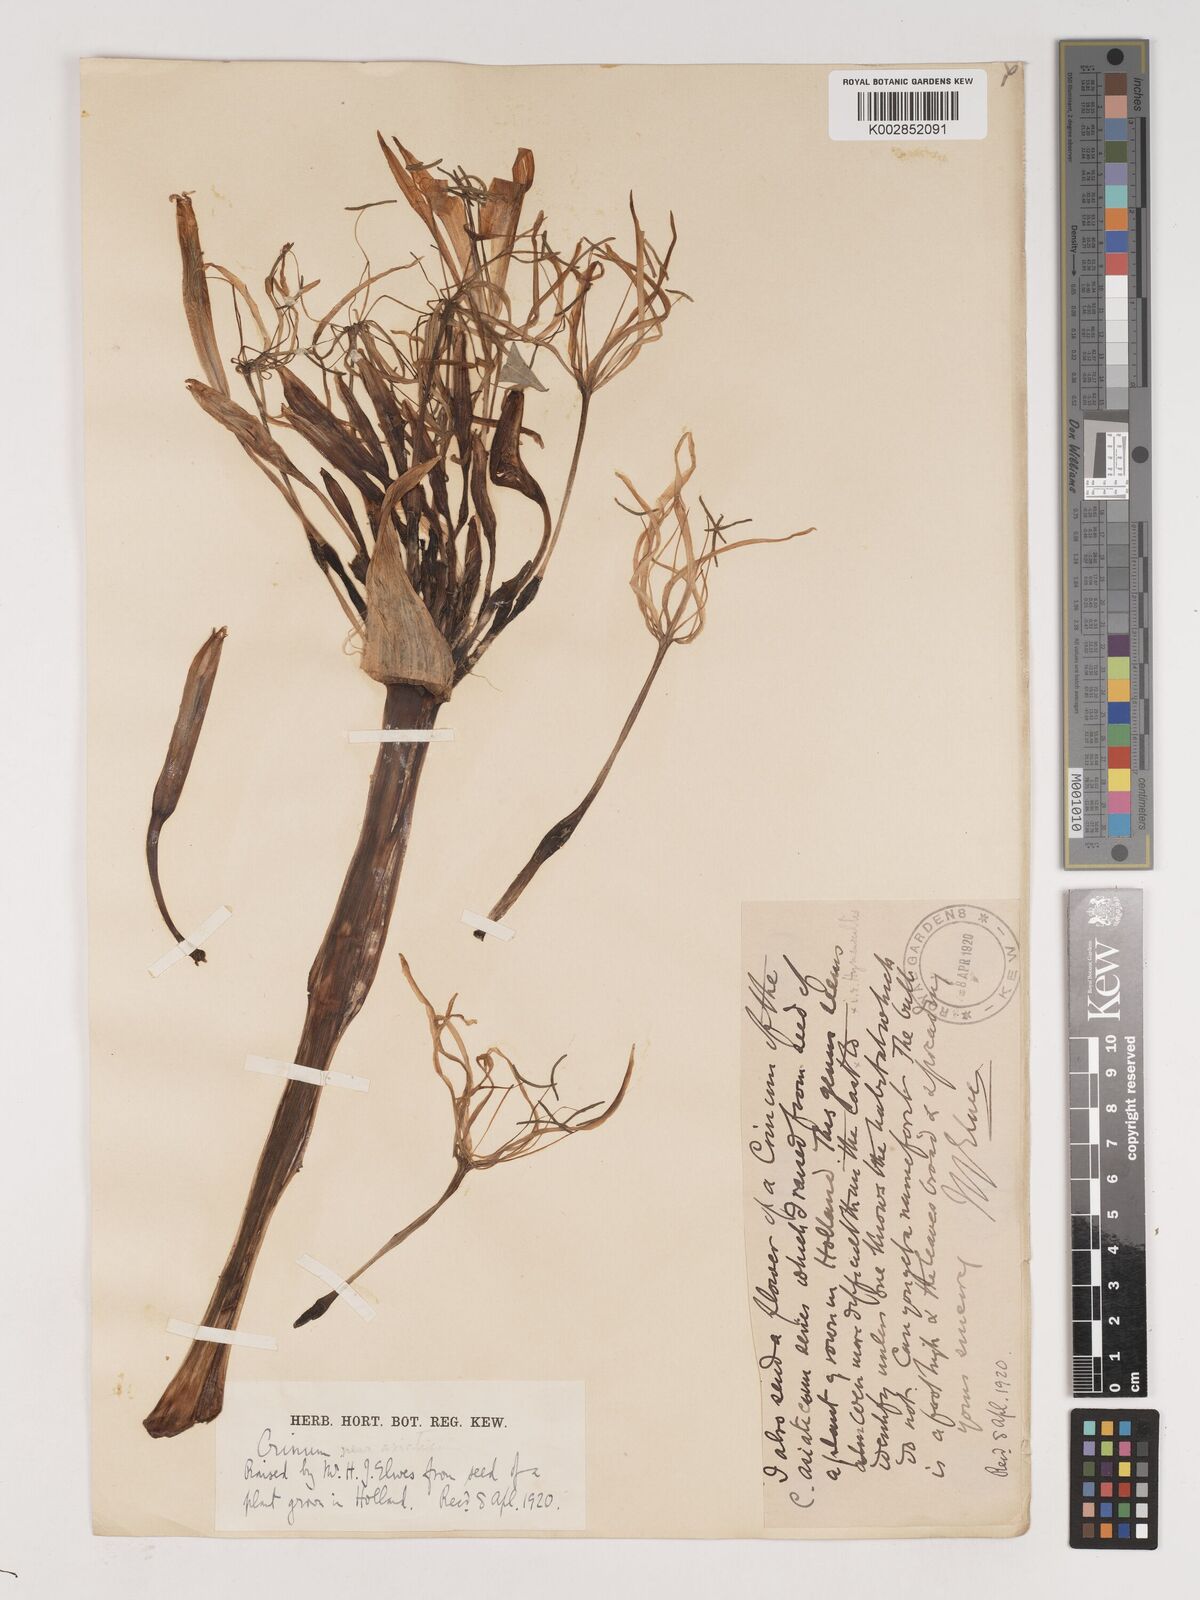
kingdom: Plantae
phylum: Tracheophyta
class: Liliopsida
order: Asparagales
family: Amaryllidaceae
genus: Crinum
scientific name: Crinum asiaticum
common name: Poisonbulb
